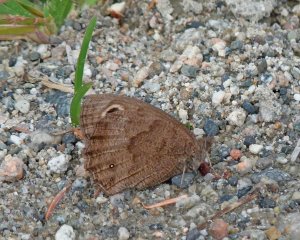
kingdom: Animalia
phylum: Arthropoda
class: Insecta
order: Lepidoptera
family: Nymphalidae
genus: Cercyonis
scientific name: Cercyonis pegala
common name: Common Wood-Nymph
